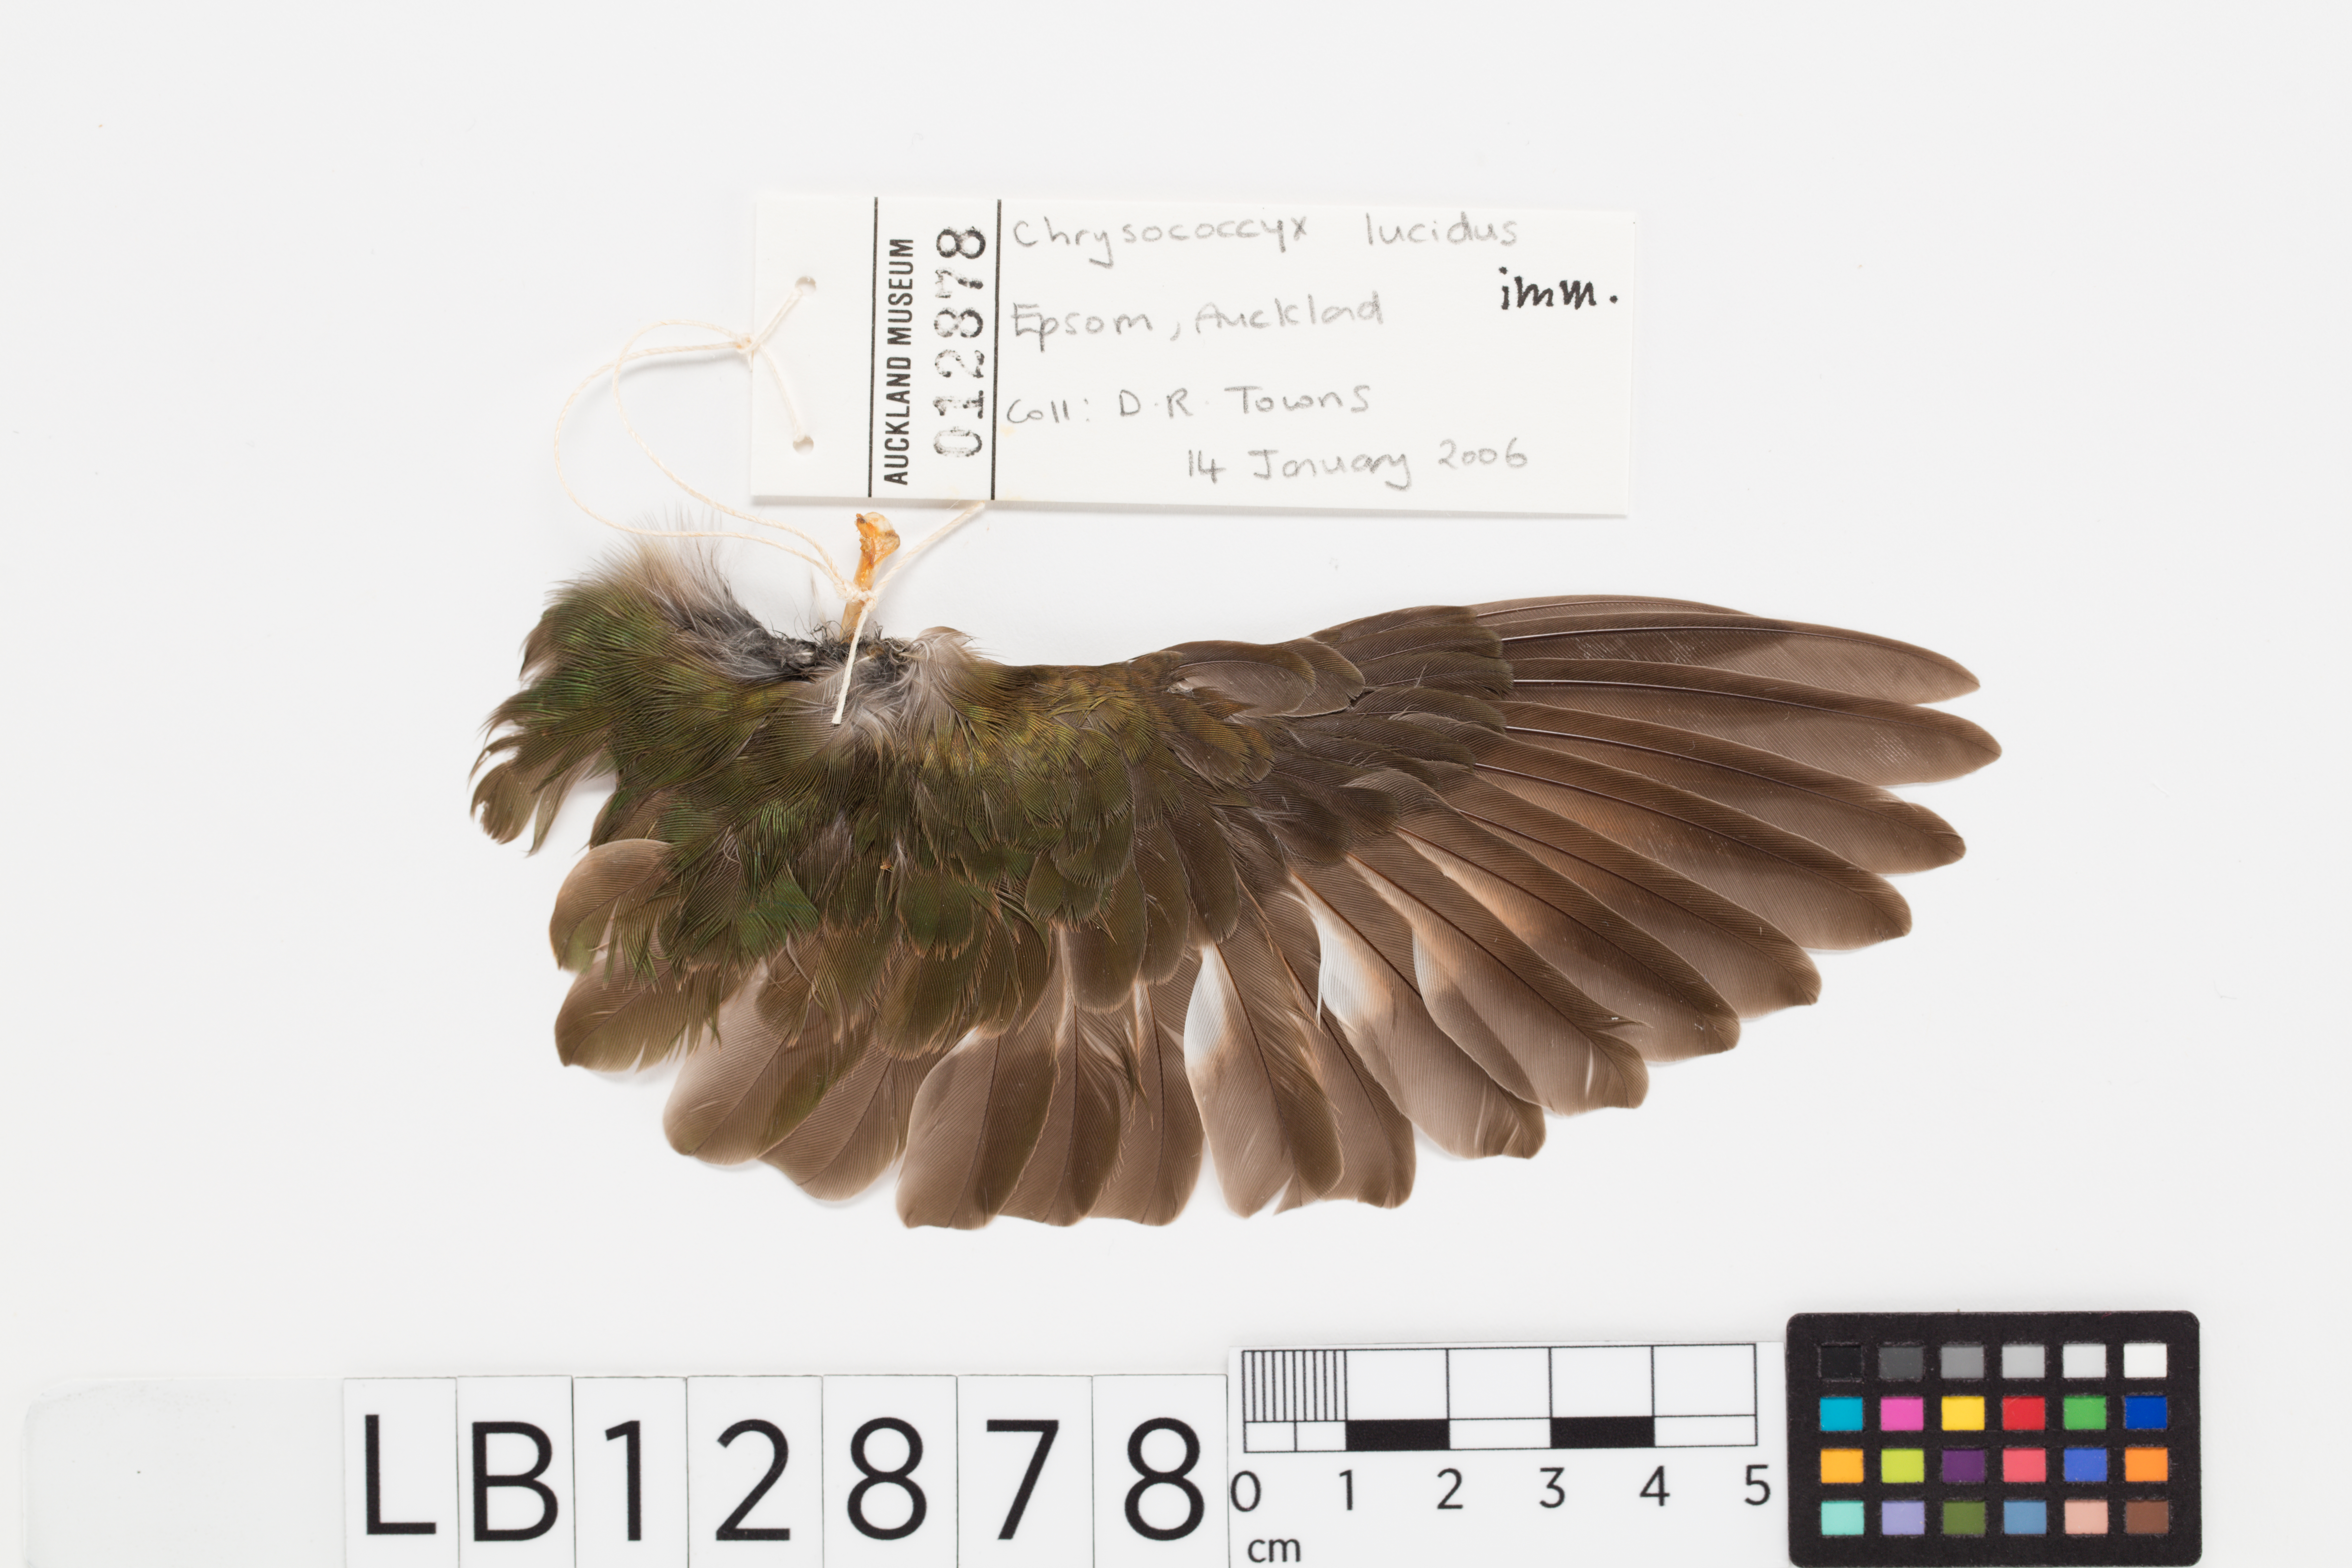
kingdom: Animalia
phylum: Chordata
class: Aves
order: Cuculiformes
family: Cuculidae
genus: Chrysococcyx
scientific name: Chrysococcyx lucidus
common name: Shining bronze cuckoo
